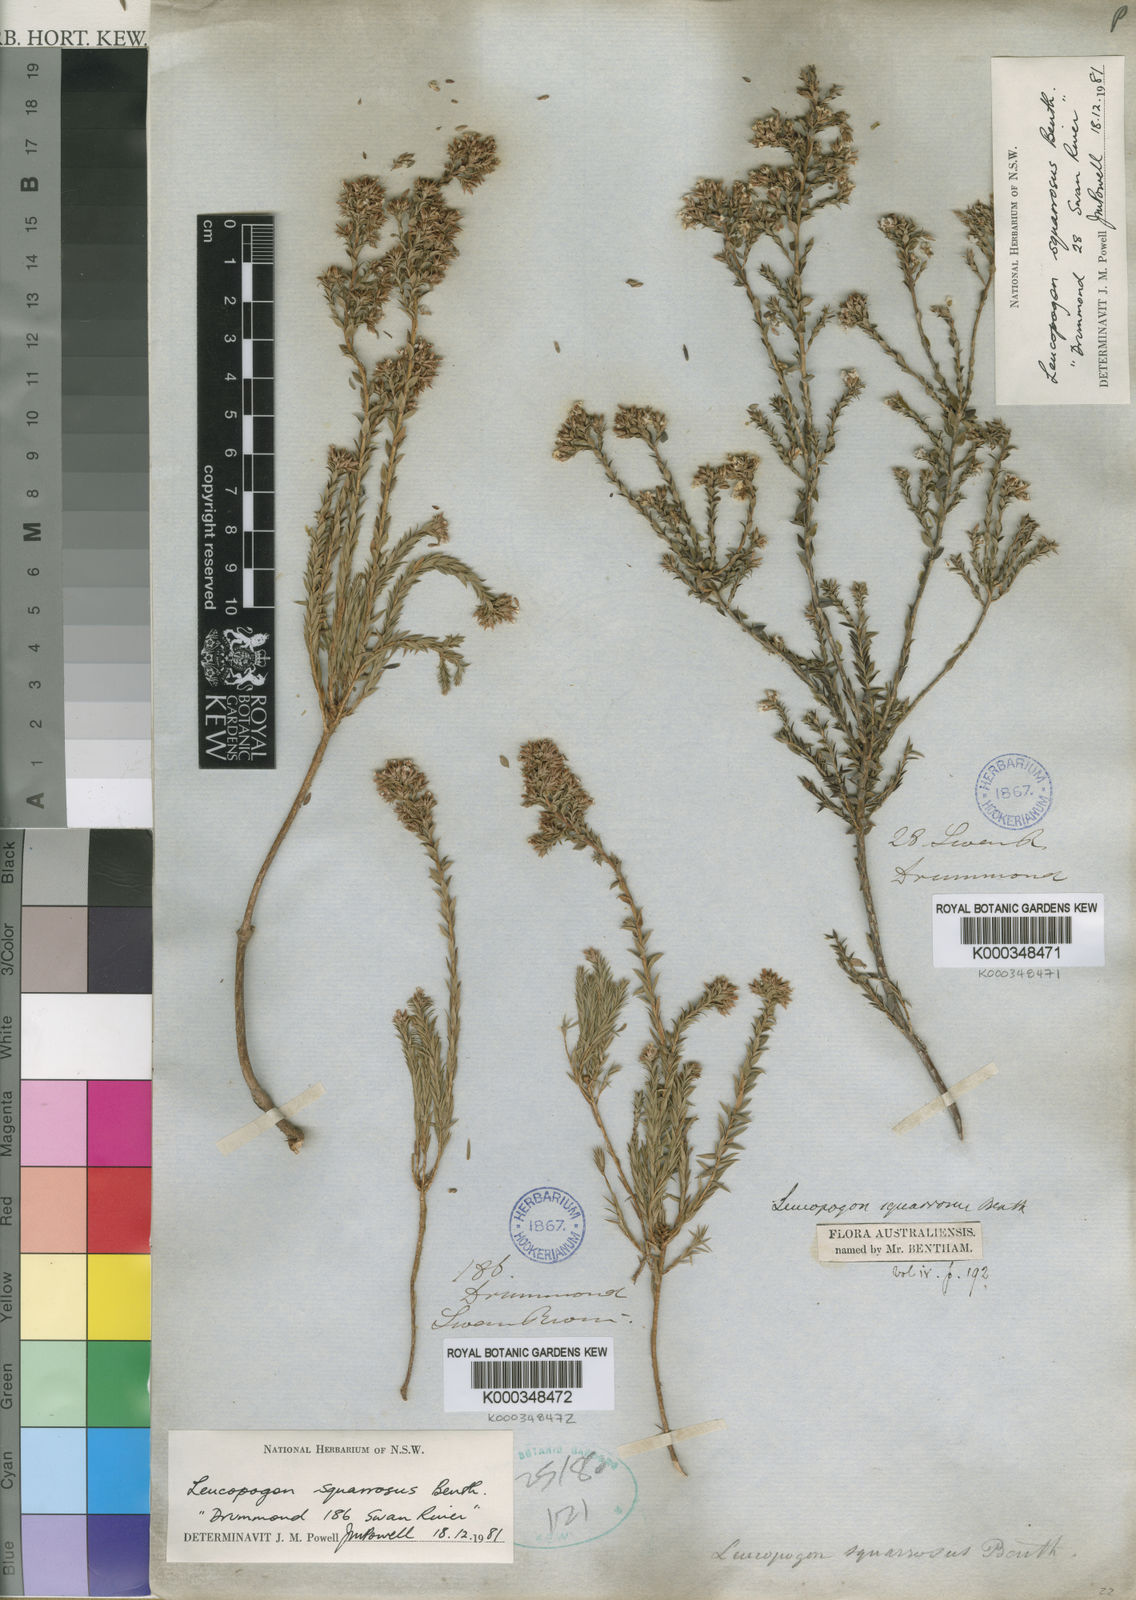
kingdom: Plantae
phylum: Tracheophyta
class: Magnoliopsida
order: Ericales
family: Ericaceae
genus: Leucopogon
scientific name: Leucopogon squarrosus
